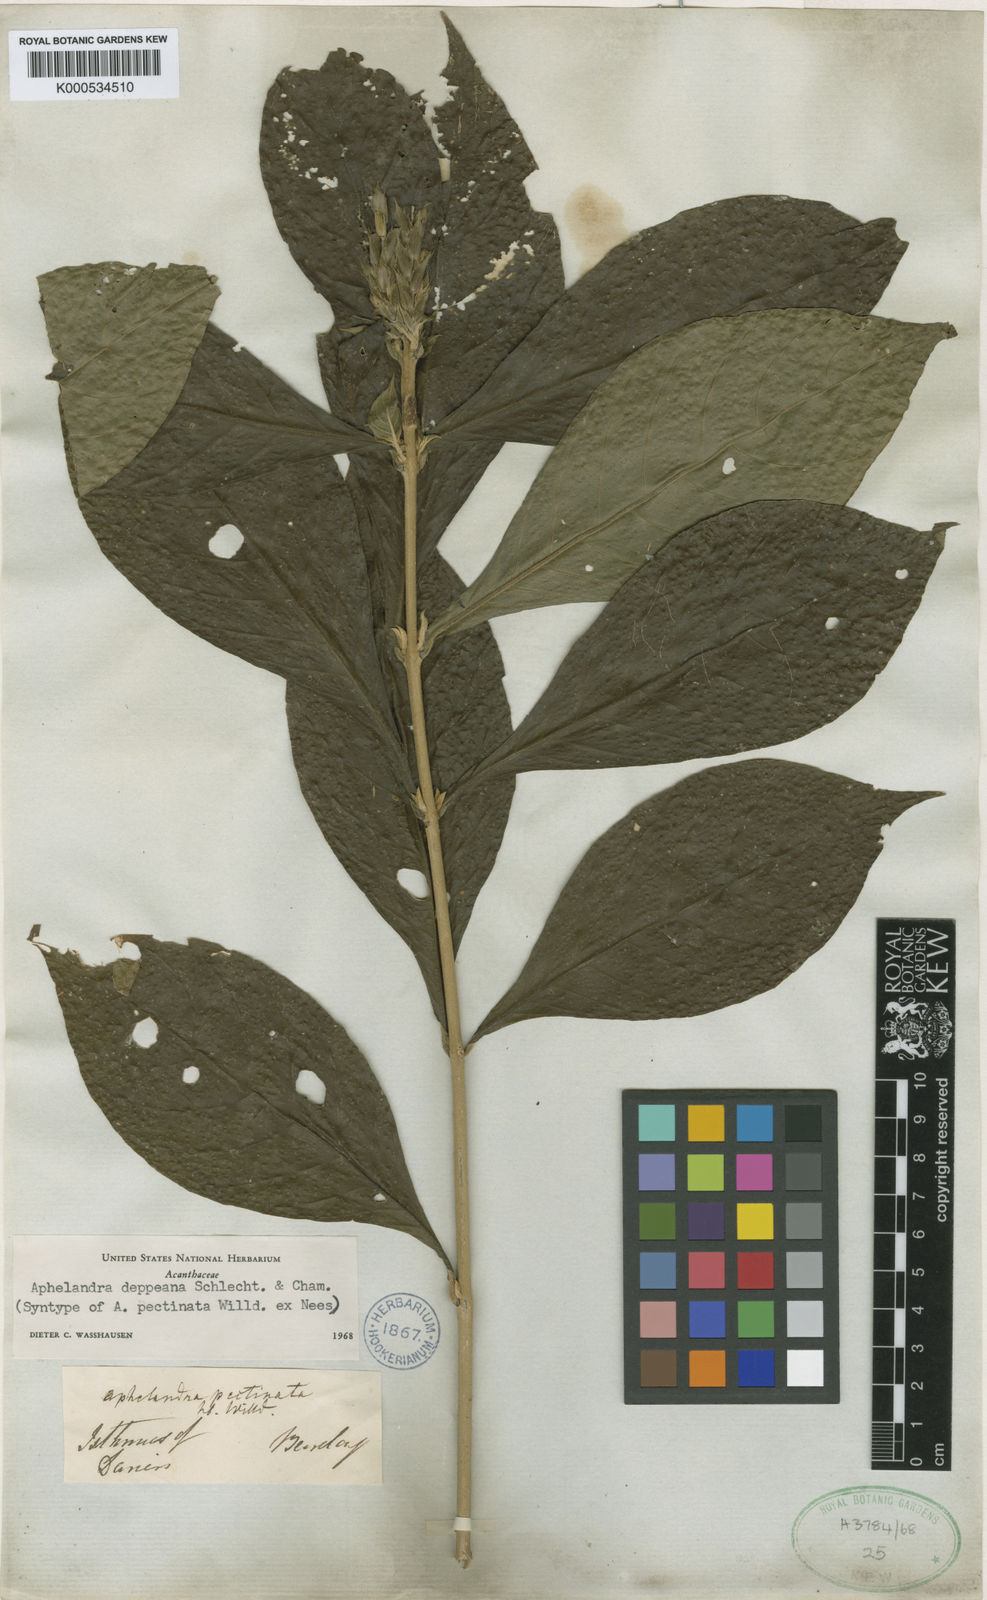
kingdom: Plantae
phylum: Tracheophyta
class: Magnoliopsida
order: Lamiales
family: Acanthaceae
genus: Aphelandra
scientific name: Aphelandra scabra
